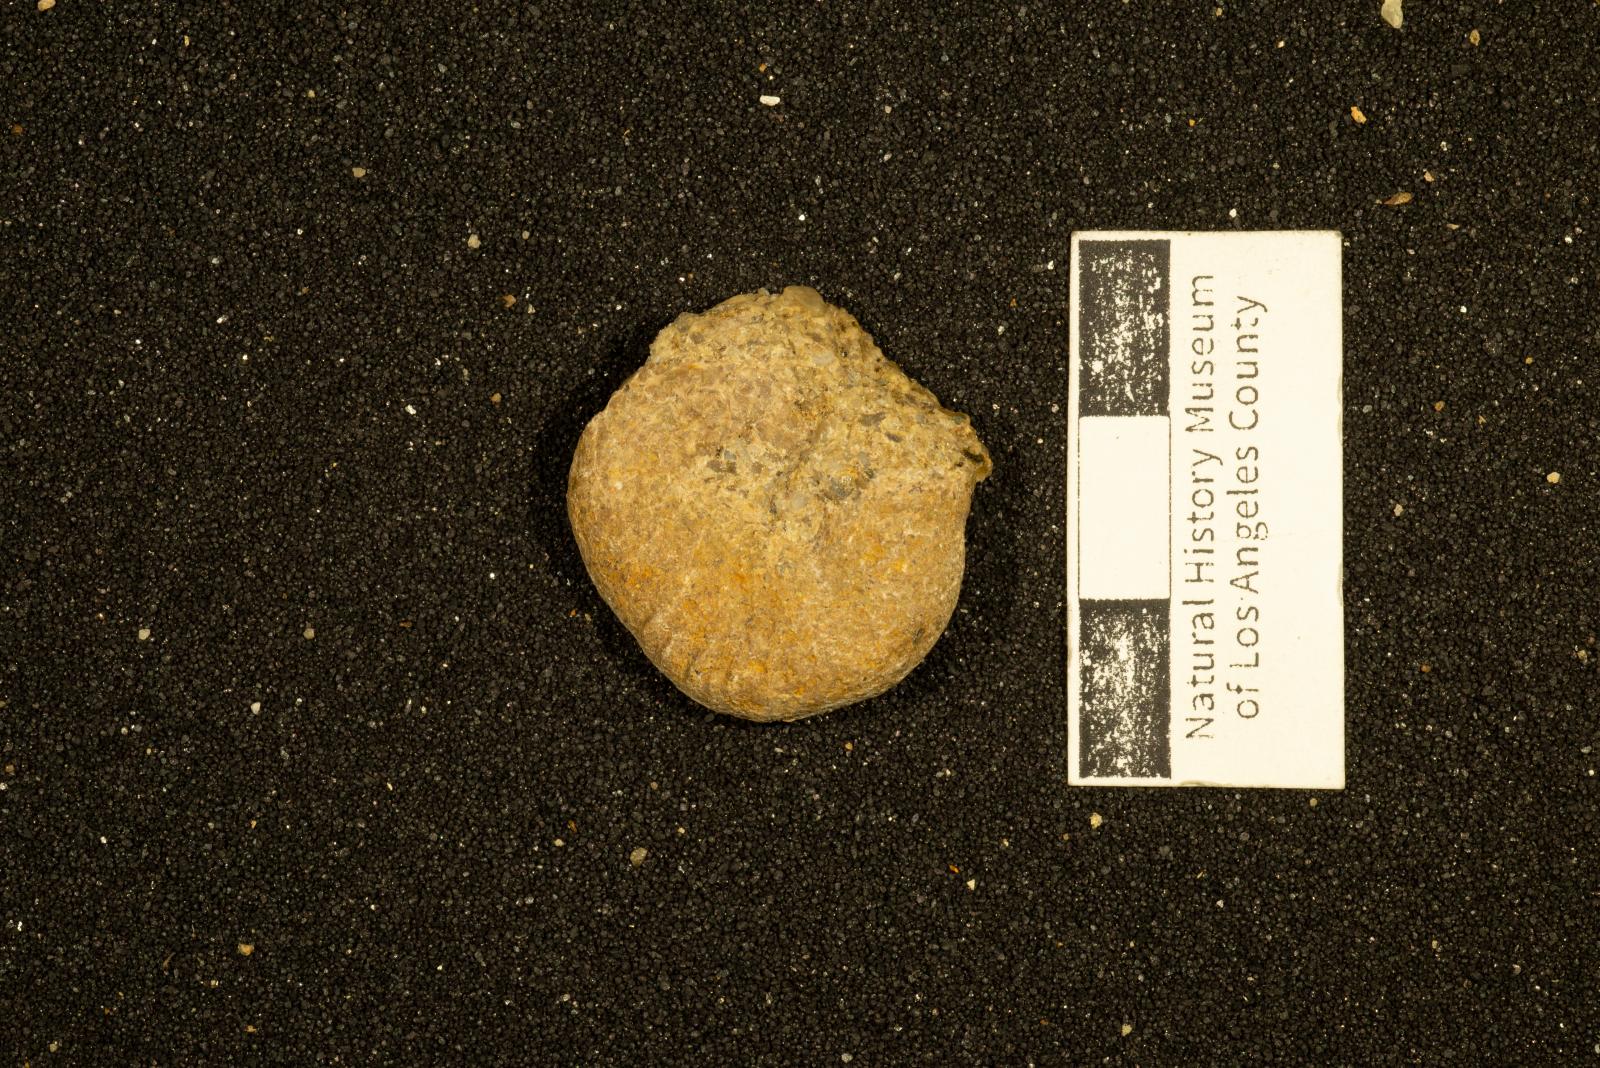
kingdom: Animalia
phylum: Mollusca
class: Cephalopoda
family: Scaphitidae
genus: Yezoites
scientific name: Yezoites planus
